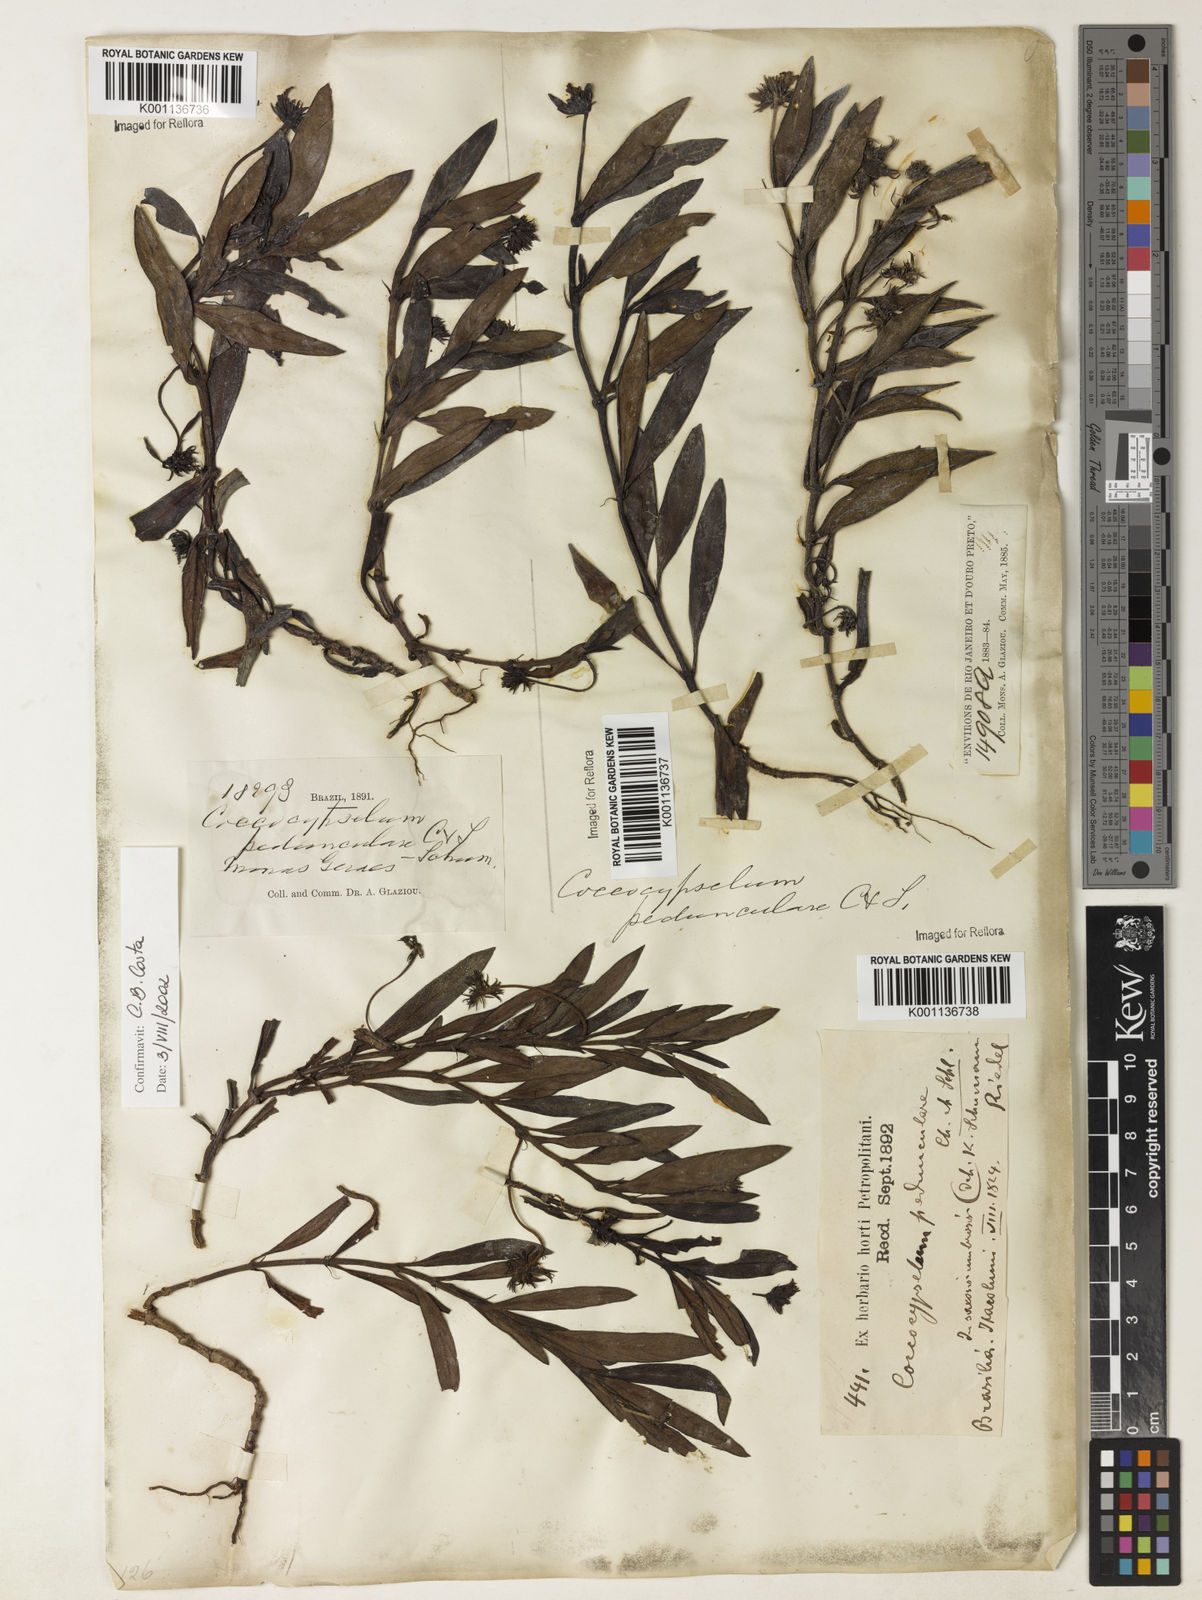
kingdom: Plantae
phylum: Tracheophyta
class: Magnoliopsida
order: Gentianales
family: Rubiaceae
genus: Coccocypselum
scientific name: Coccocypselum pedunculare
